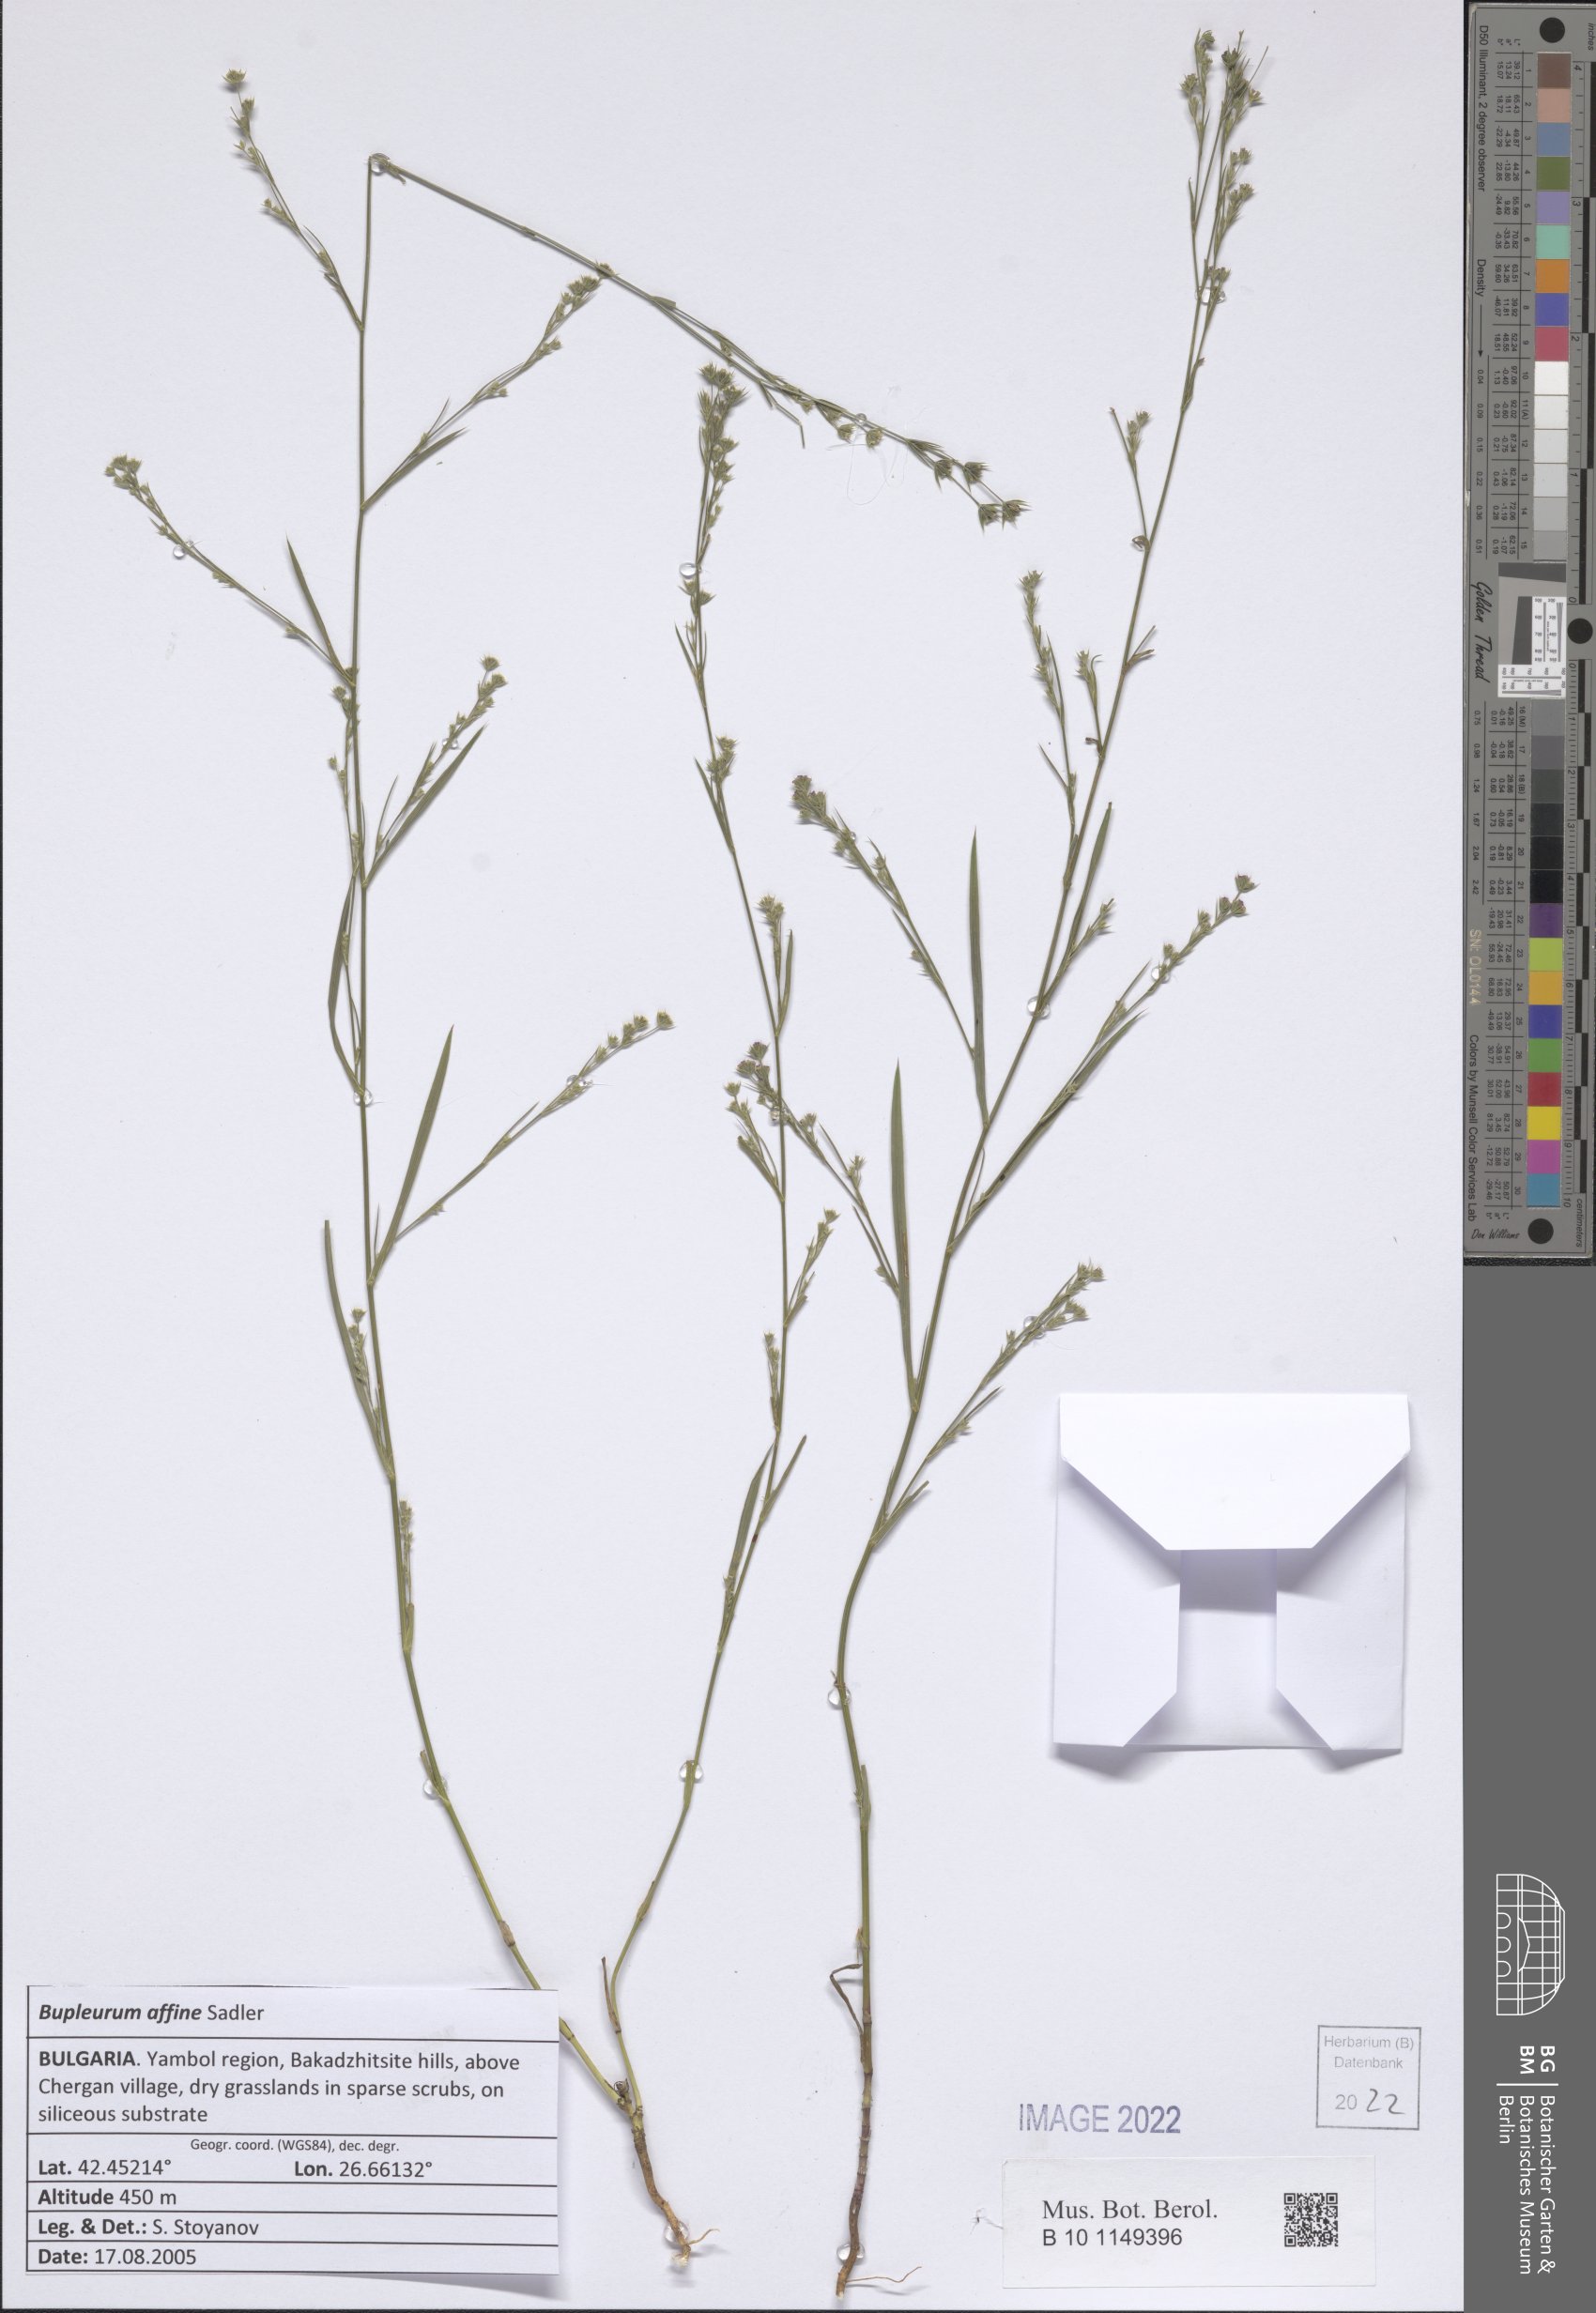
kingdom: Plantae
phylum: Tracheophyta
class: Magnoliopsida
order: Apiales
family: Apiaceae
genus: Bupleurum
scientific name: Bupleurum affine
